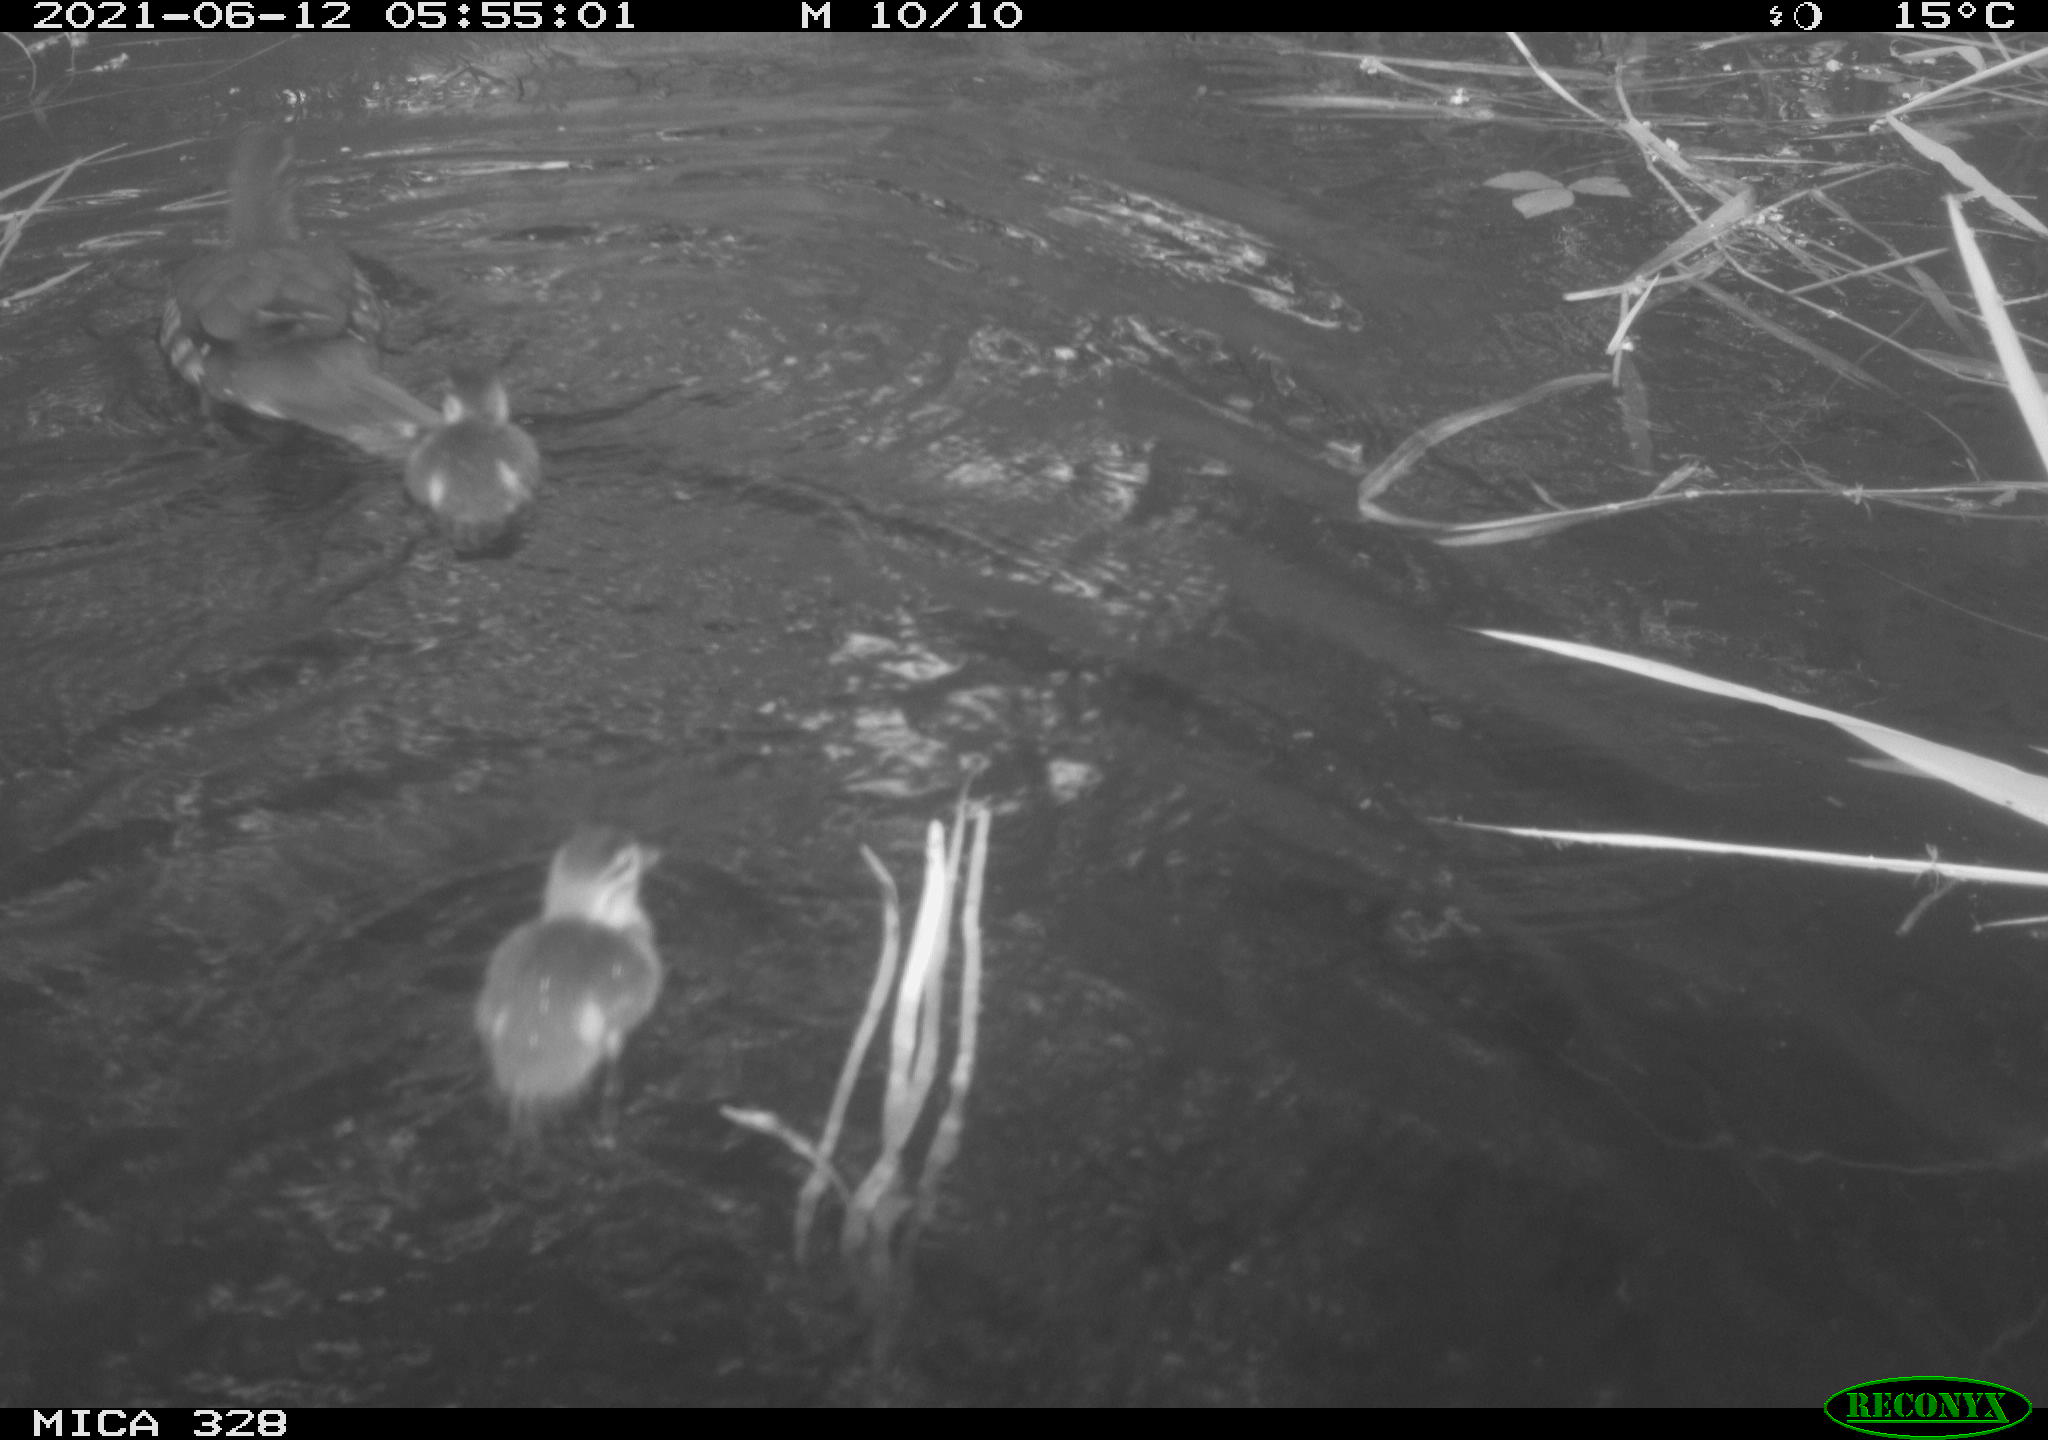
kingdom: Animalia
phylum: Chordata
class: Aves
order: Anseriformes
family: Anatidae
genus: Aix
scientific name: Aix galericulata
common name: Mandarin duck
